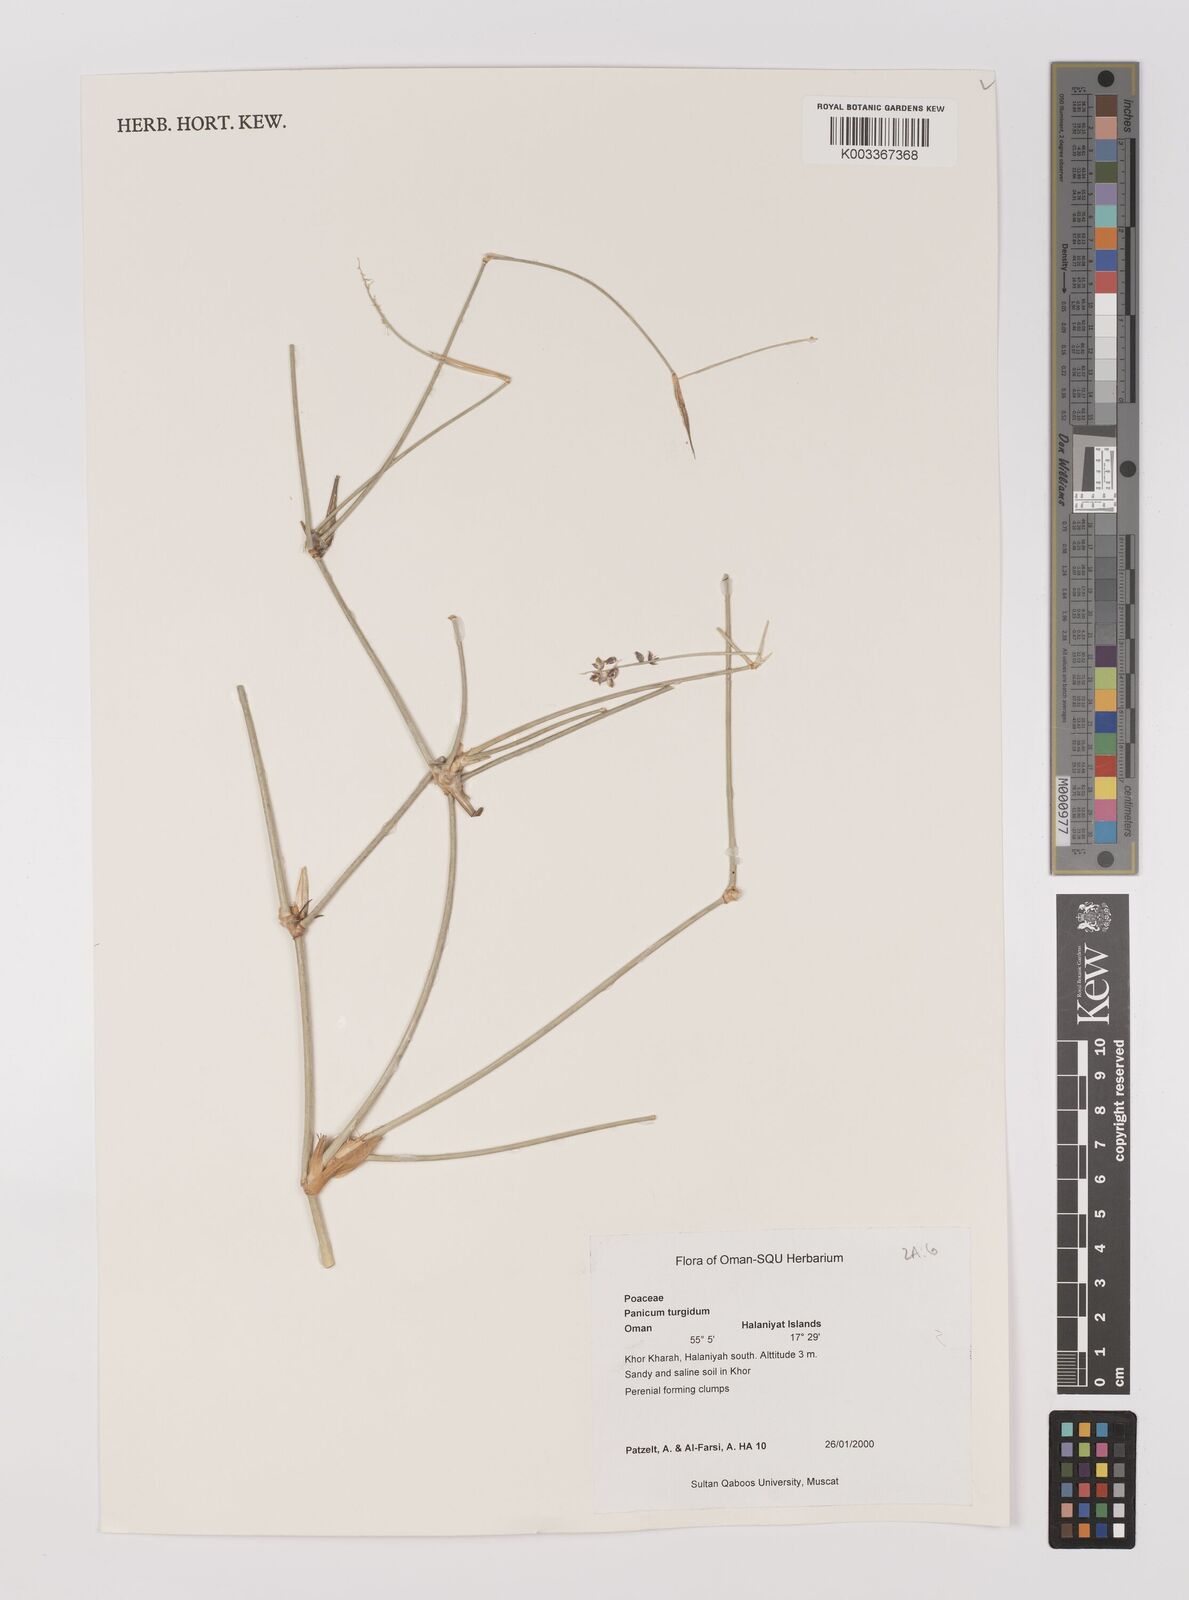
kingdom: Plantae
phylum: Tracheophyta
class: Liliopsida
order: Poales
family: Poaceae
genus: Panicum
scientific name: Panicum turgidum
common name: Desert grass
